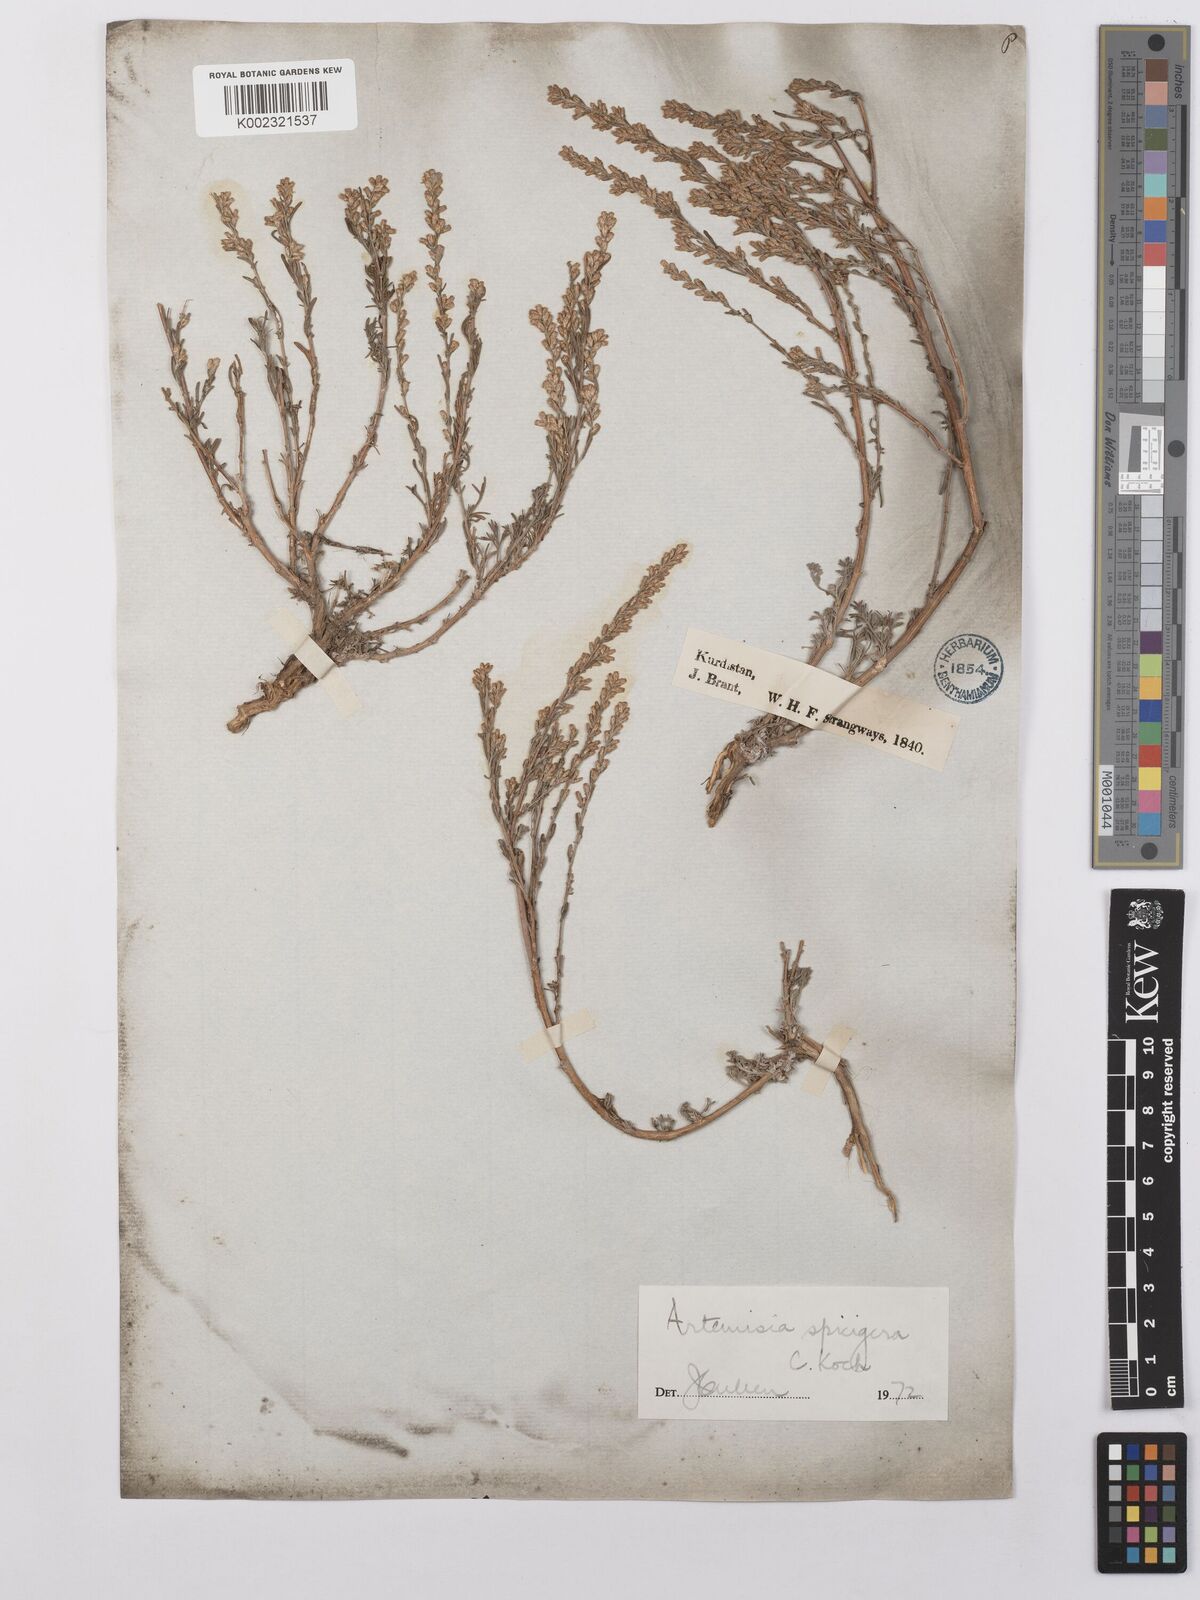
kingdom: Plantae
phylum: Tracheophyta
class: Magnoliopsida
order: Asterales
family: Asteraceae
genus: Artemisia
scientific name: Artemisia spicigera
